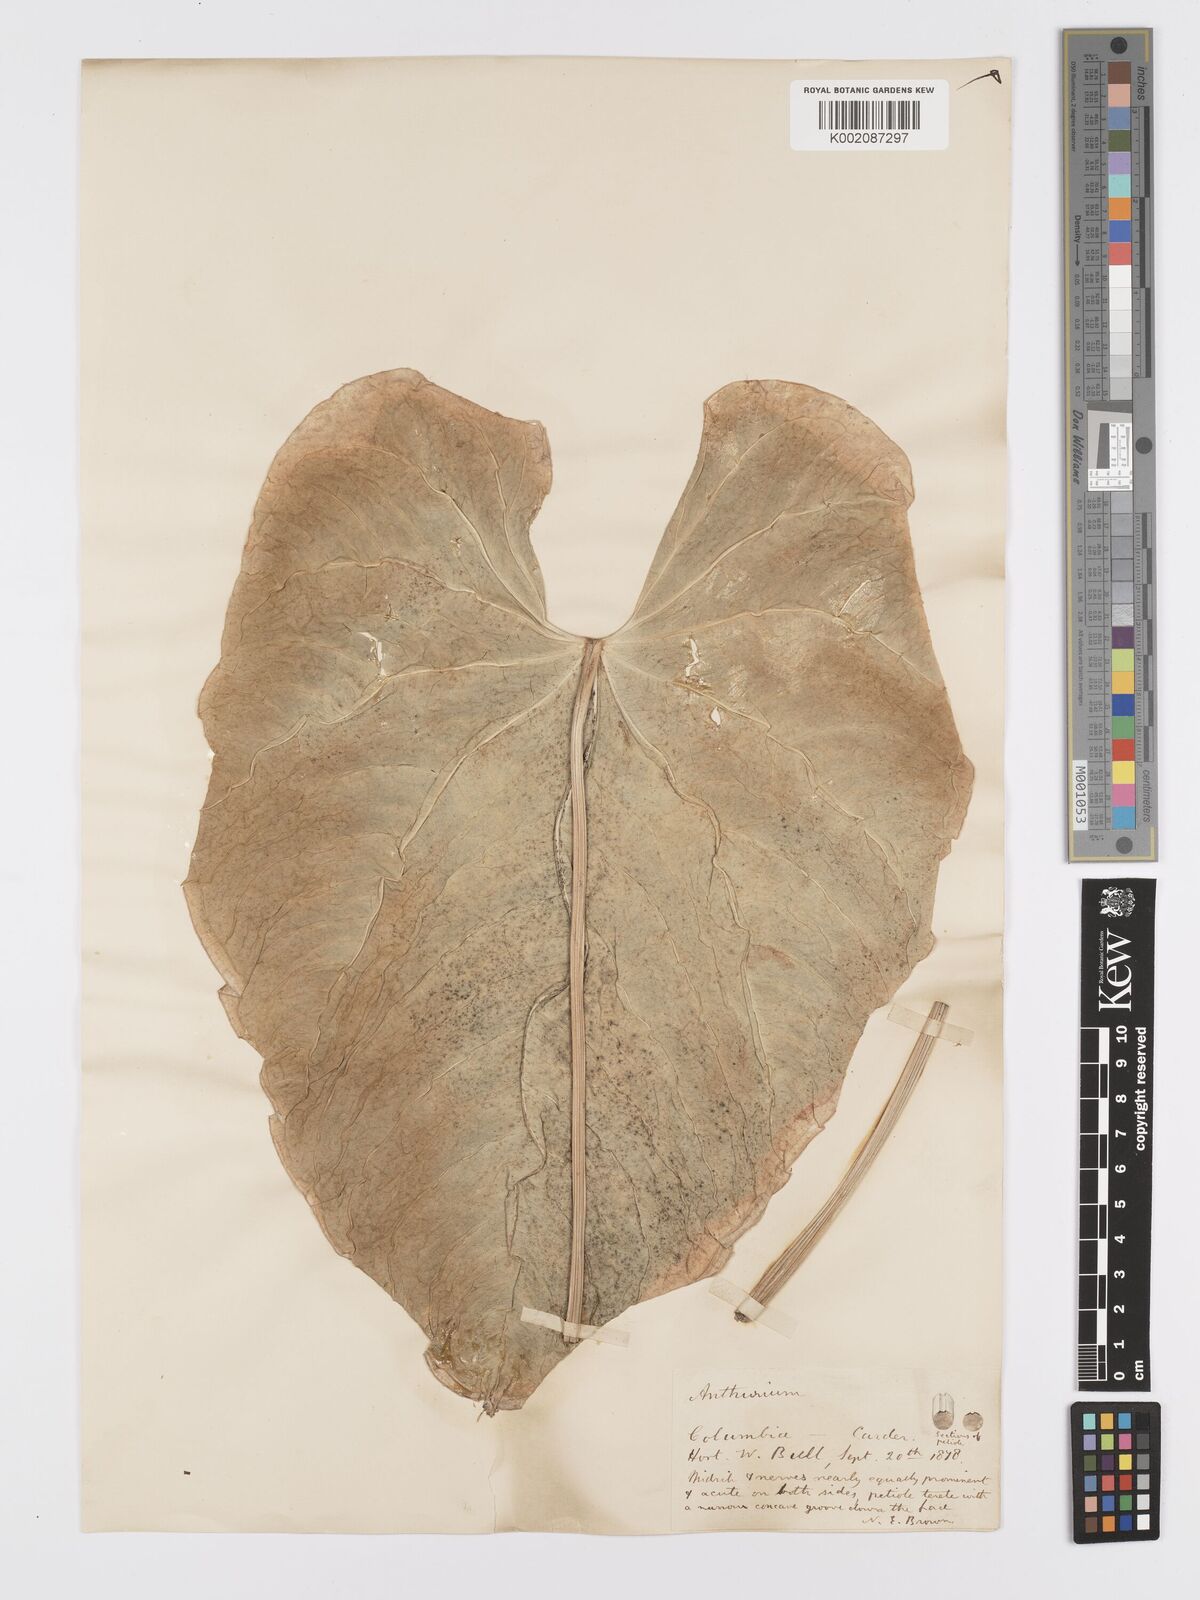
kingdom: Plantae
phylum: Tracheophyta
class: Liliopsida
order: Alismatales
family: Araceae
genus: Anthurium
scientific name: Anthurium
